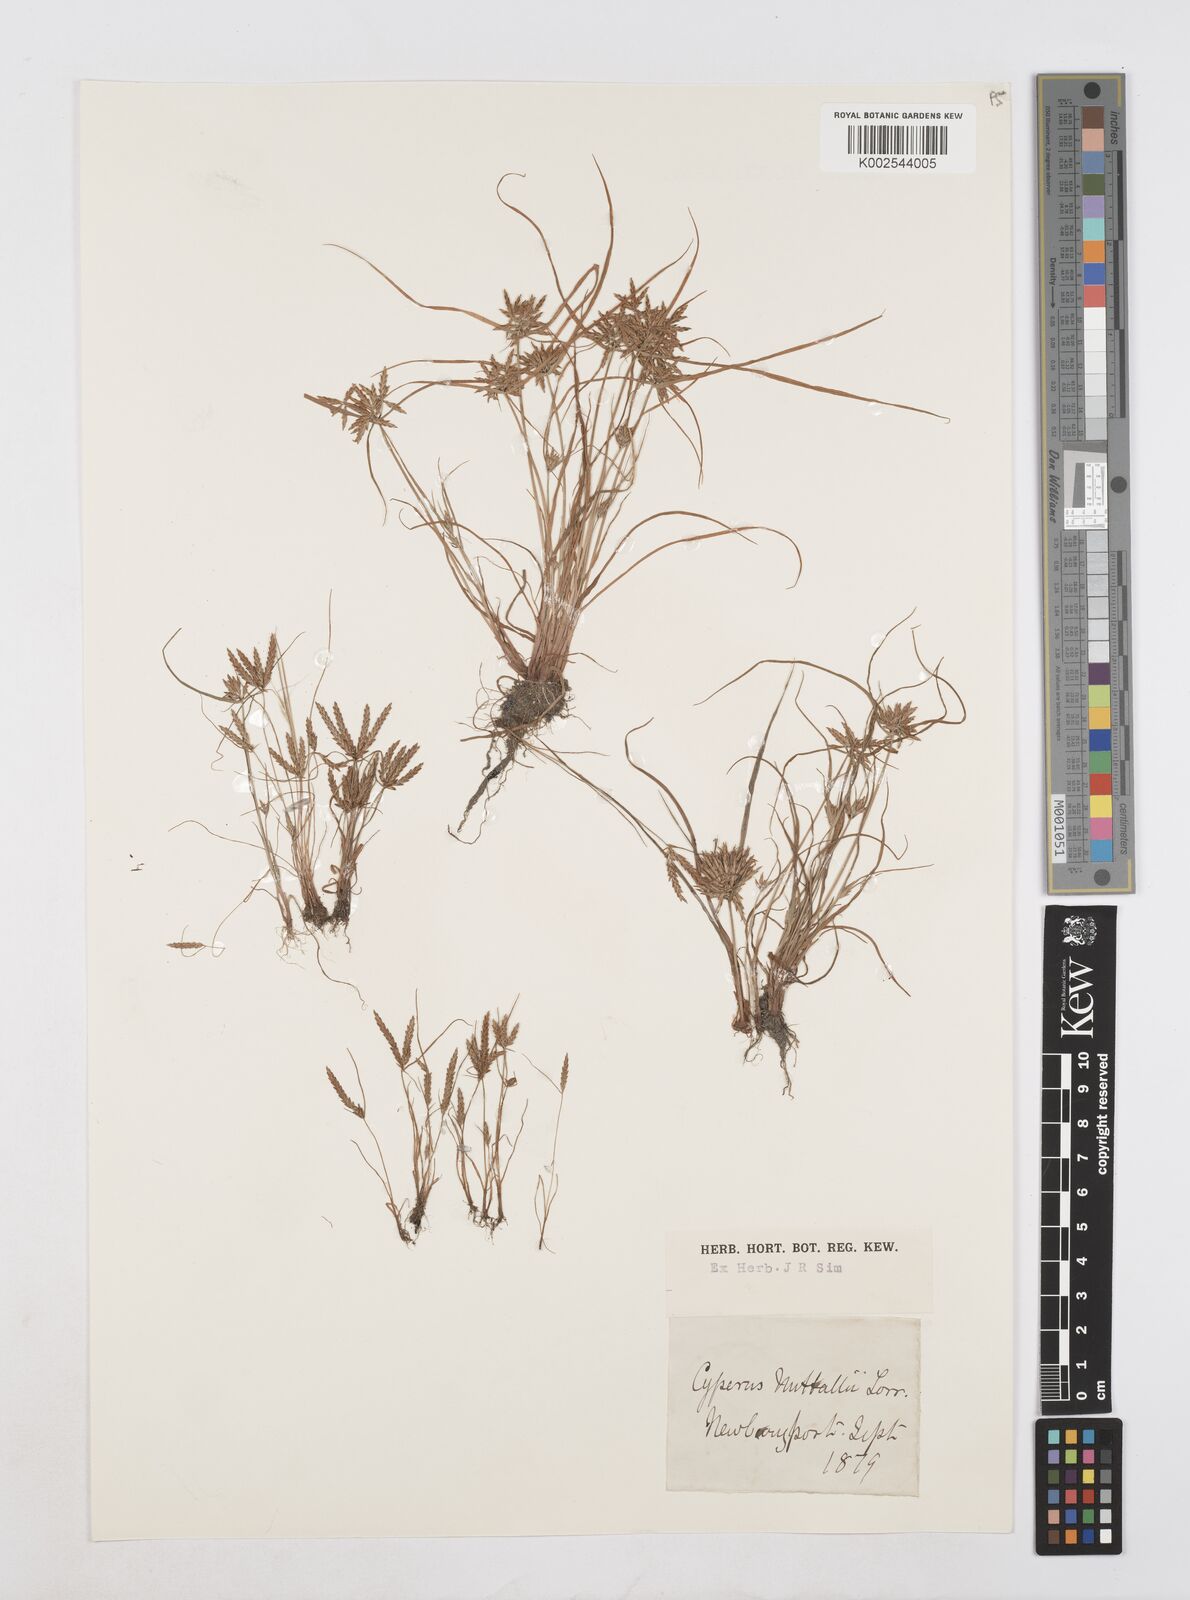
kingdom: Plantae
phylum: Tracheophyta
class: Liliopsida
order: Poales
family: Cyperaceae
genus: Cyperus
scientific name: Cyperus filicinus
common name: Fern flatsedge
